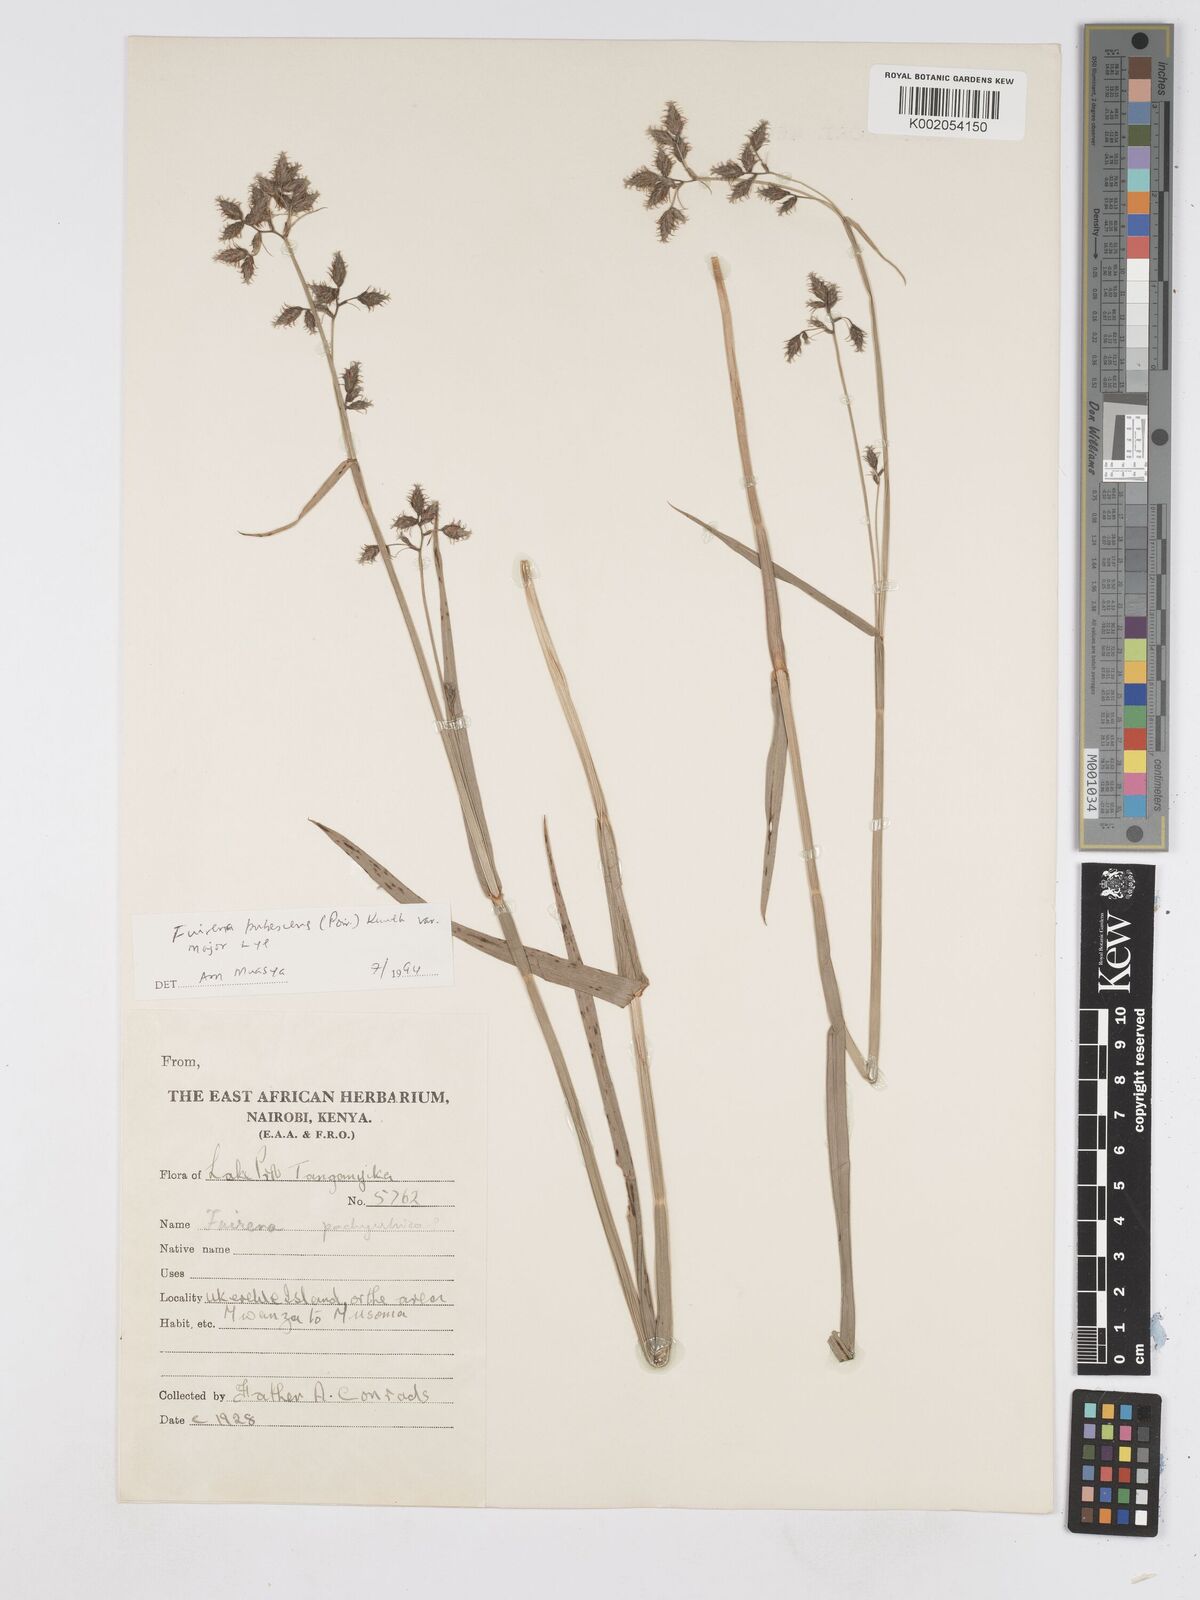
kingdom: Plantae
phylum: Tracheophyta
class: Liliopsida
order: Poales
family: Cyperaceae
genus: Fuirena
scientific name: Fuirena pachyrrhiza
